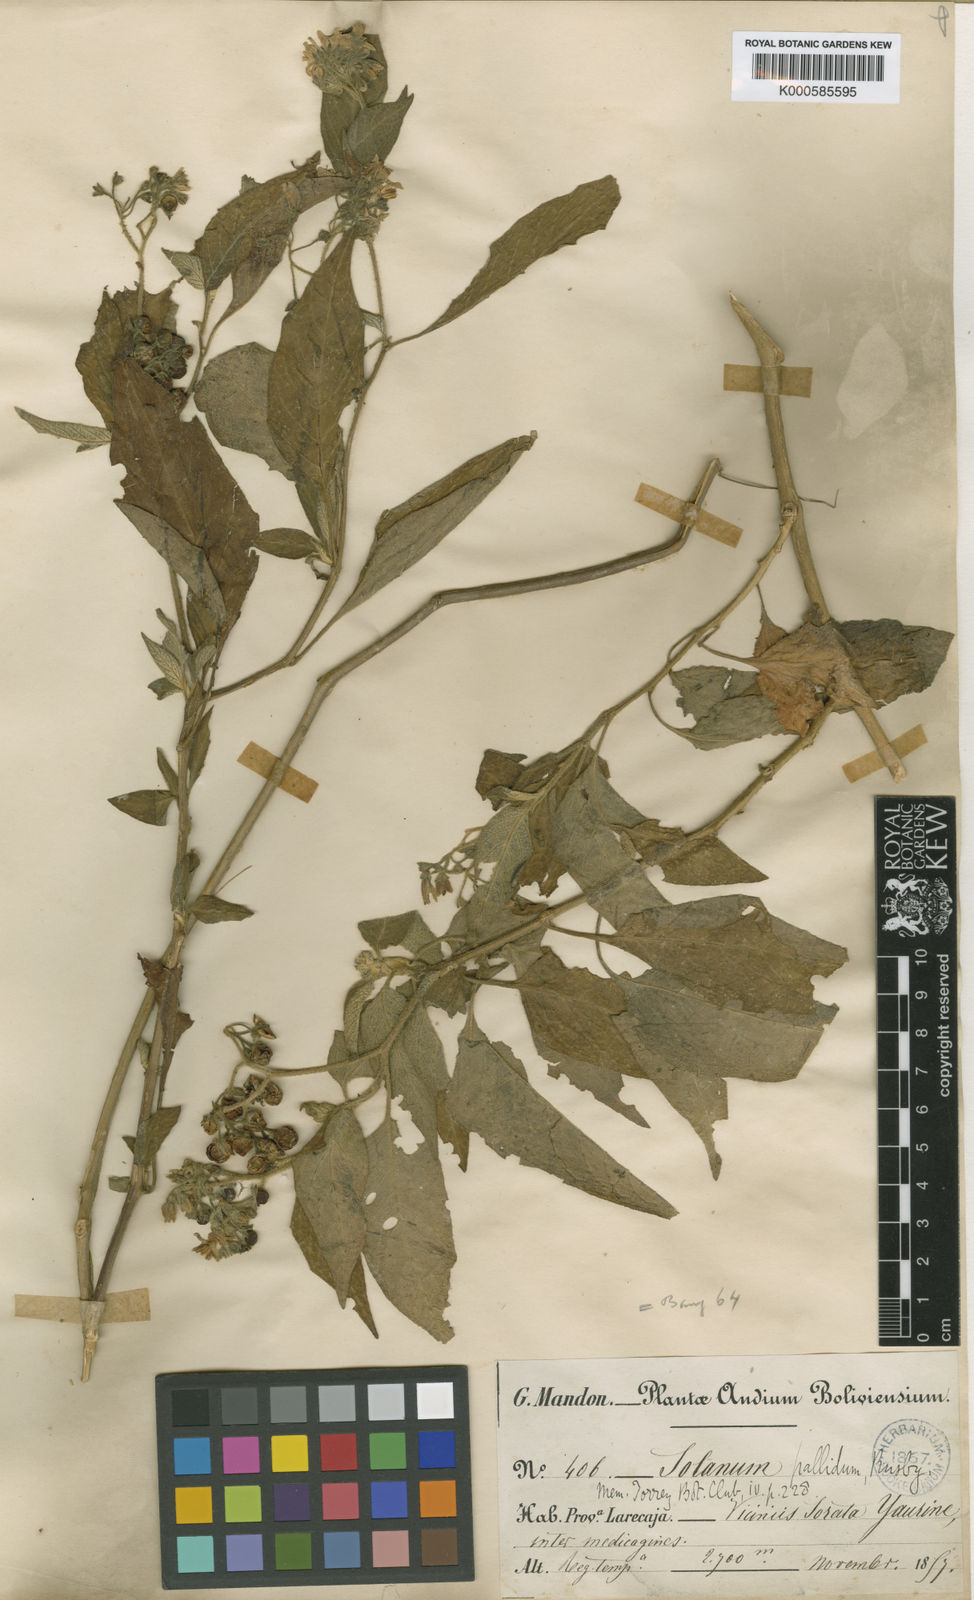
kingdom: Plantae
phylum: Tracheophyta
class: Magnoliopsida
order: Solanales
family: Solanaceae
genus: Solanum
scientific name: Solanum pallidum
